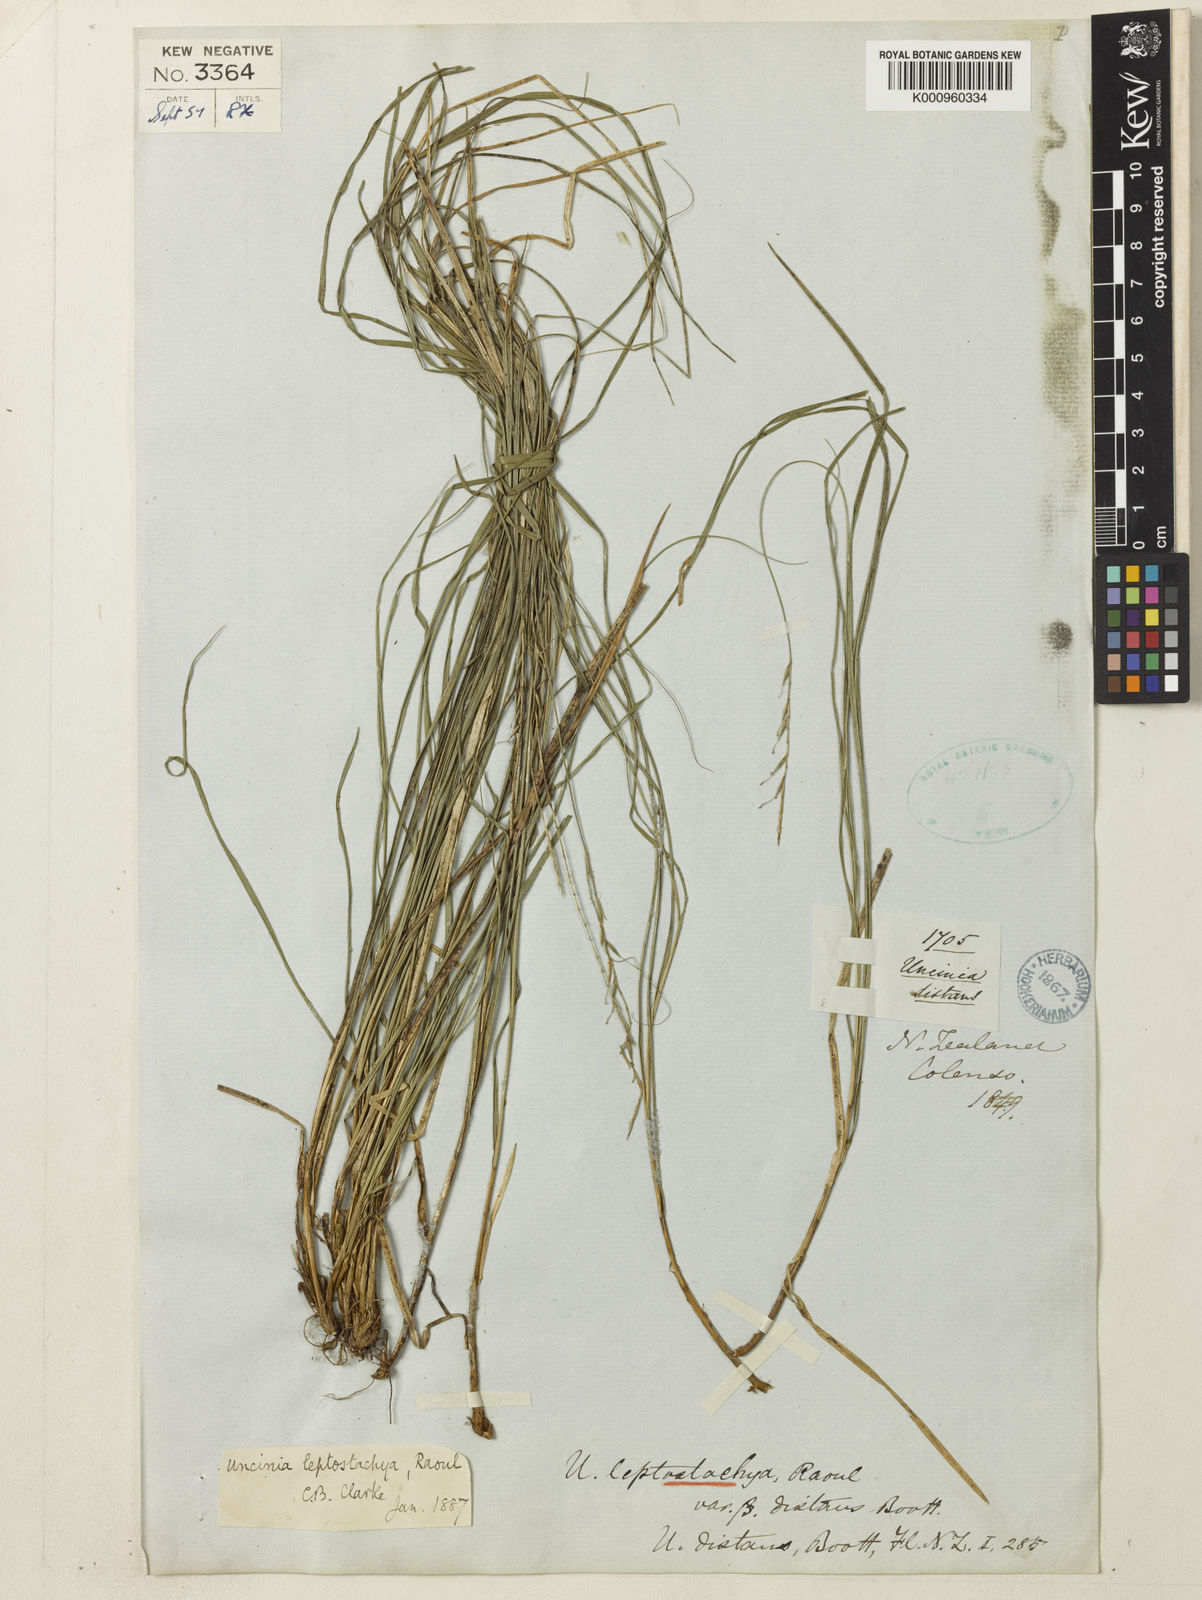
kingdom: Plantae
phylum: Tracheophyta
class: Liliopsida
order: Poales
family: Cyperaceae
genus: Carex
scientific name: Carex cyanea
